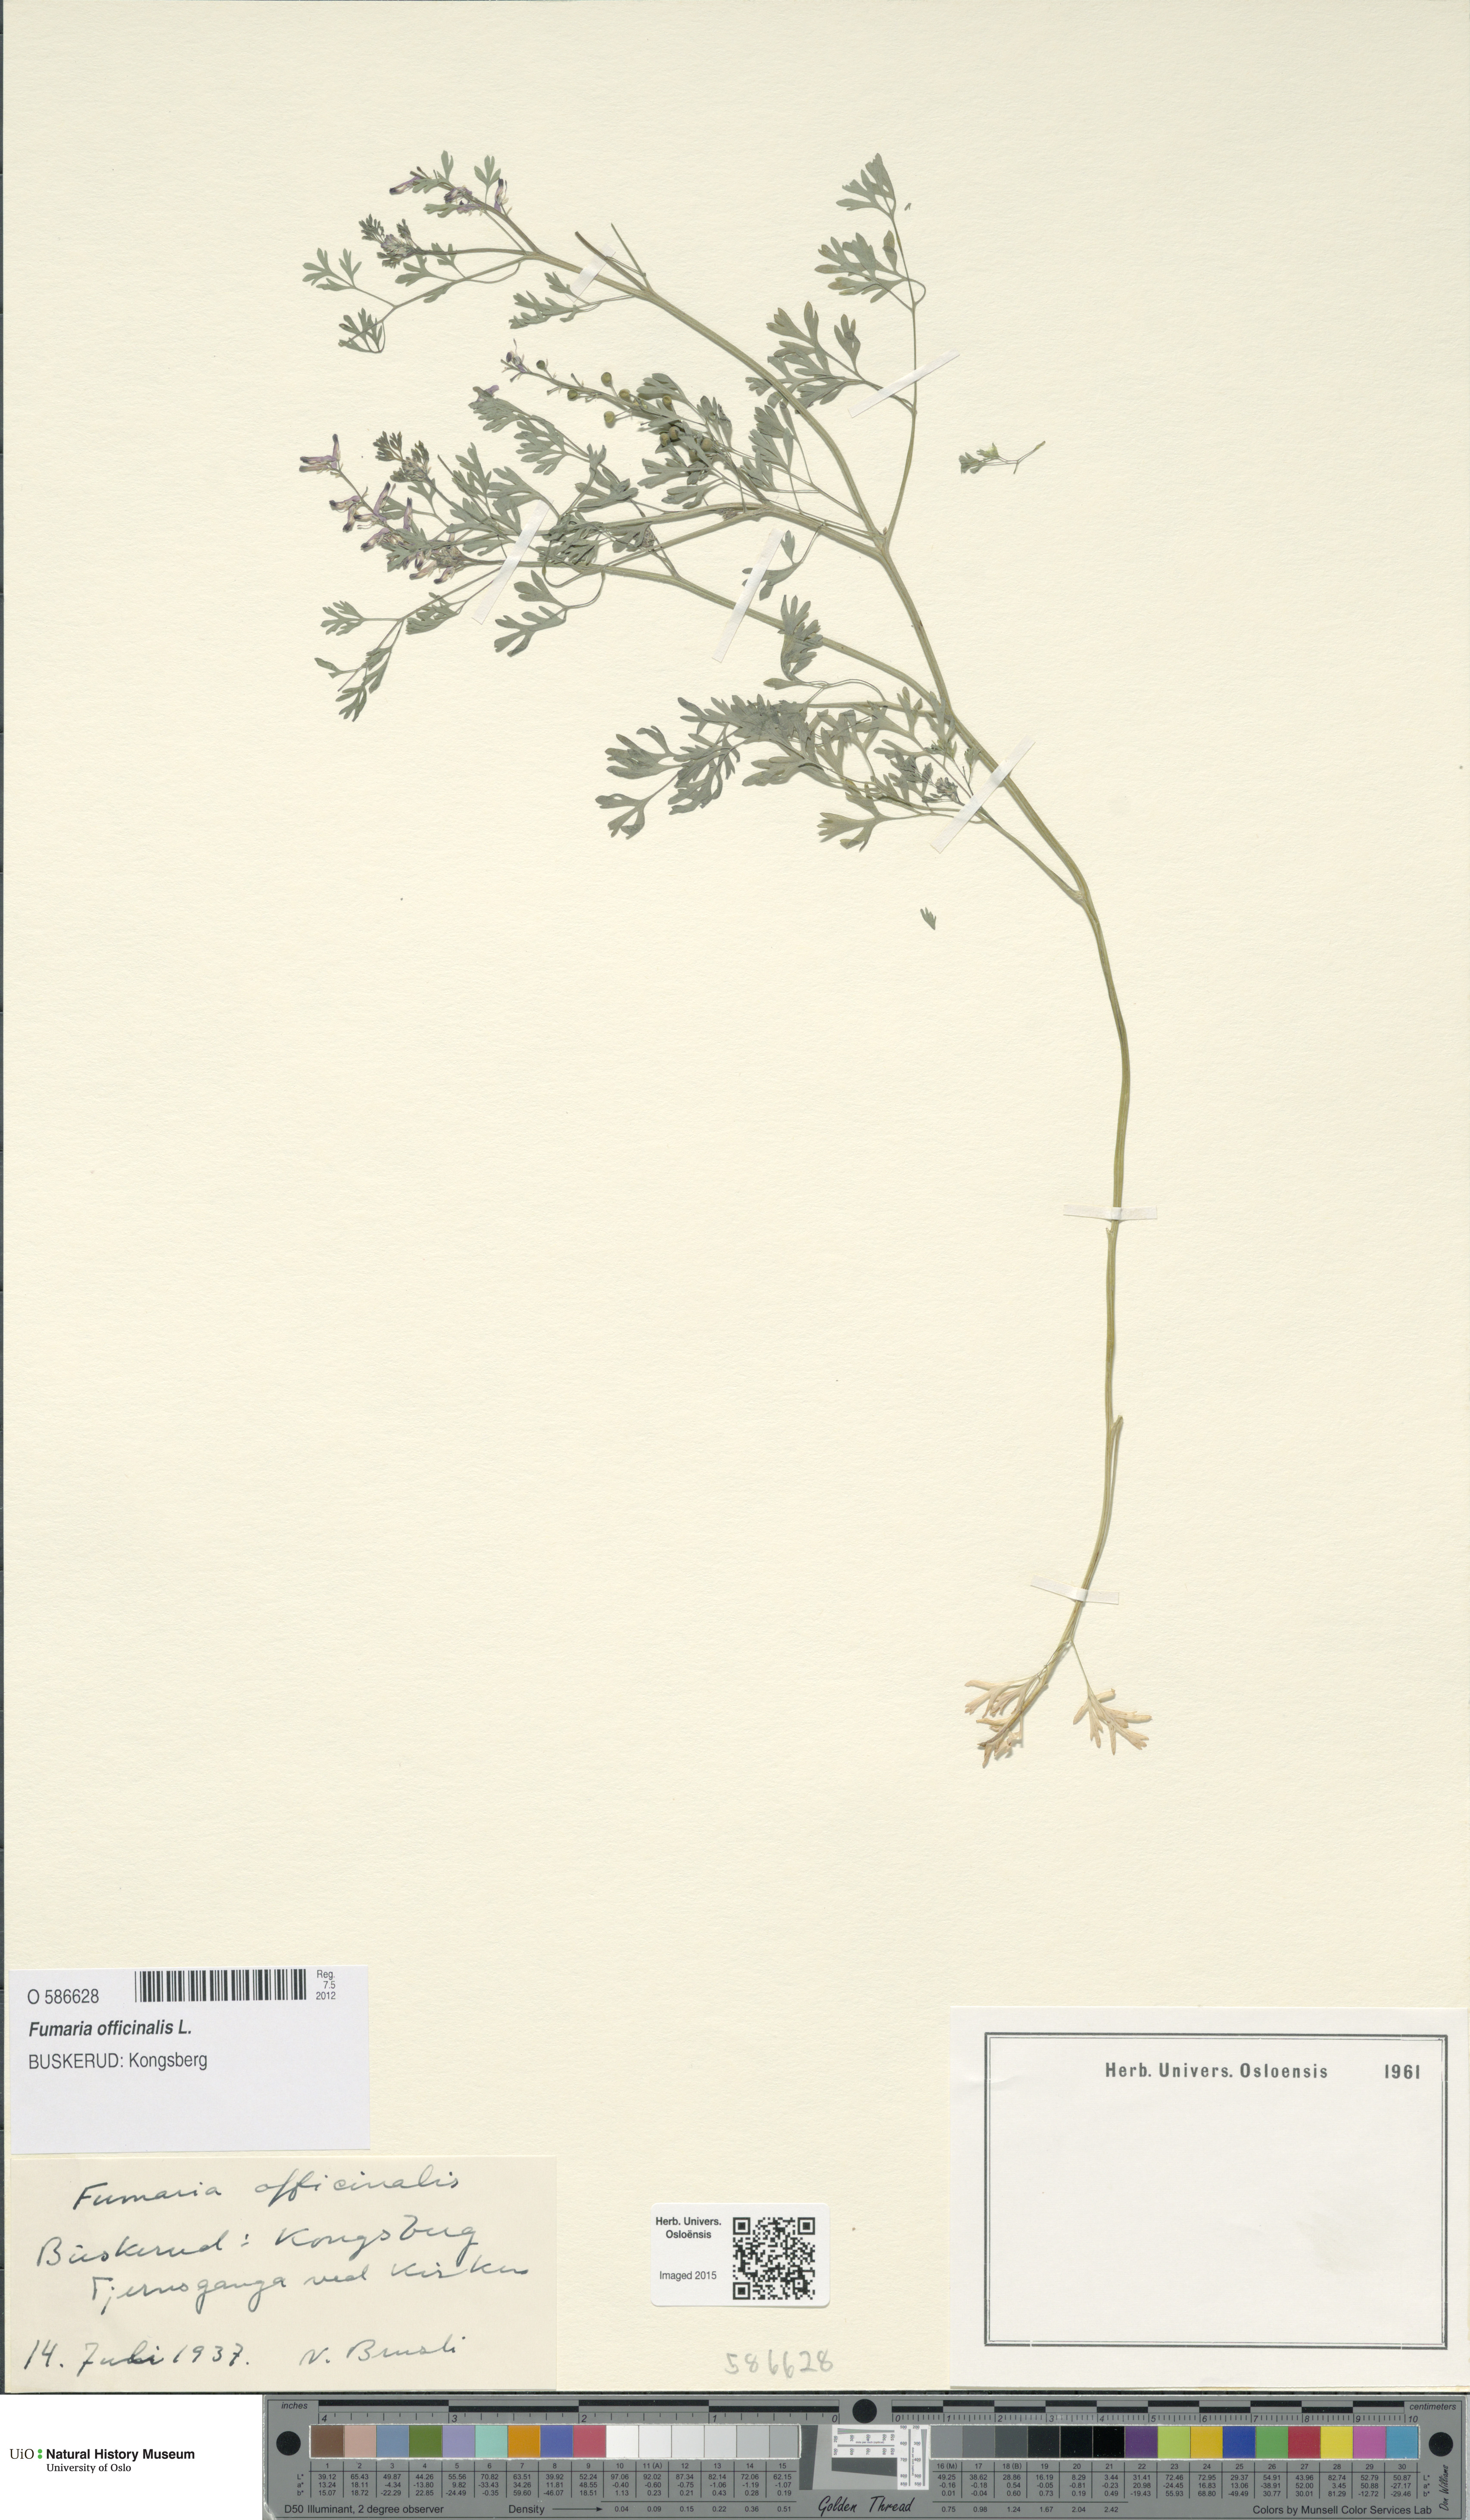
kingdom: Plantae
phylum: Tracheophyta
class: Magnoliopsida
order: Ranunculales
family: Papaveraceae
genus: Fumaria
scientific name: Fumaria officinalis
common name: Common fumitory
